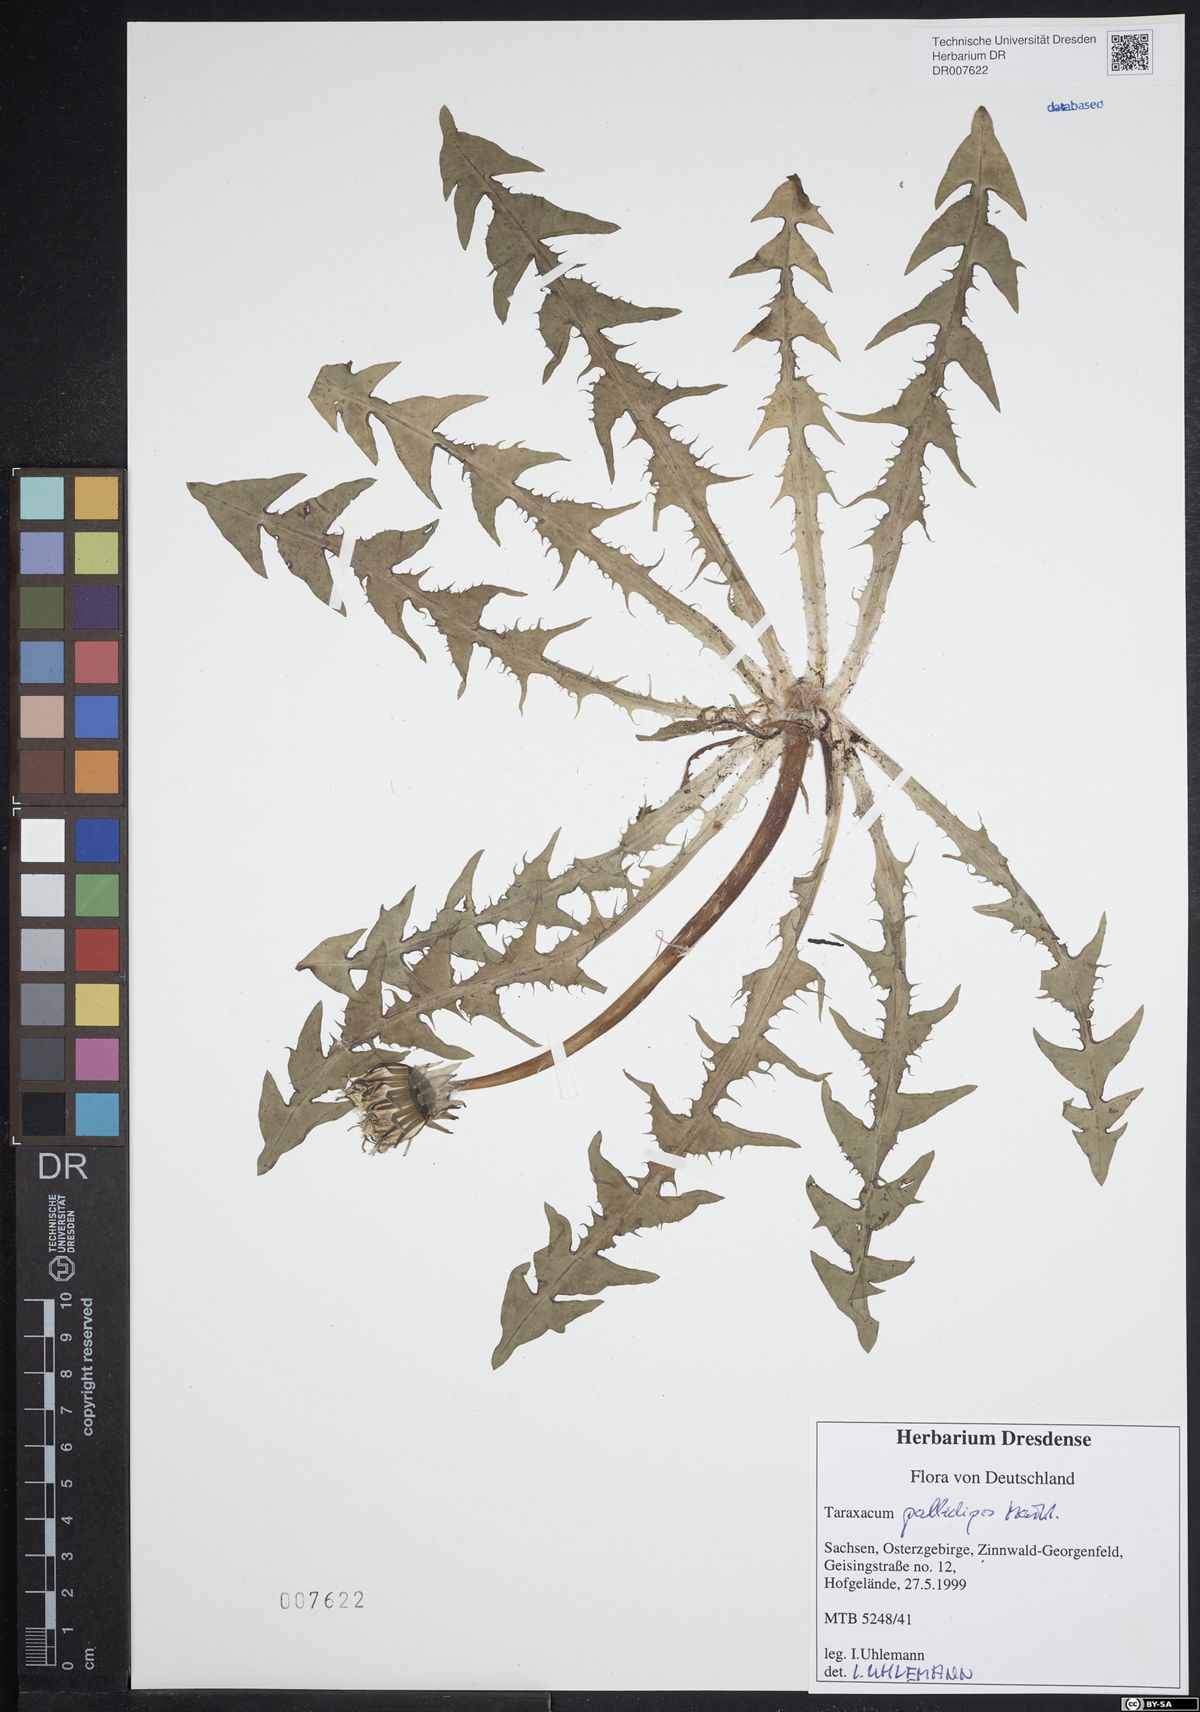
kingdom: Plantae
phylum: Tracheophyta
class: Magnoliopsida
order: Asterales
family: Asteraceae
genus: Taraxacum
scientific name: Taraxacum pallidipes
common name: Grey-bracted dandelion
